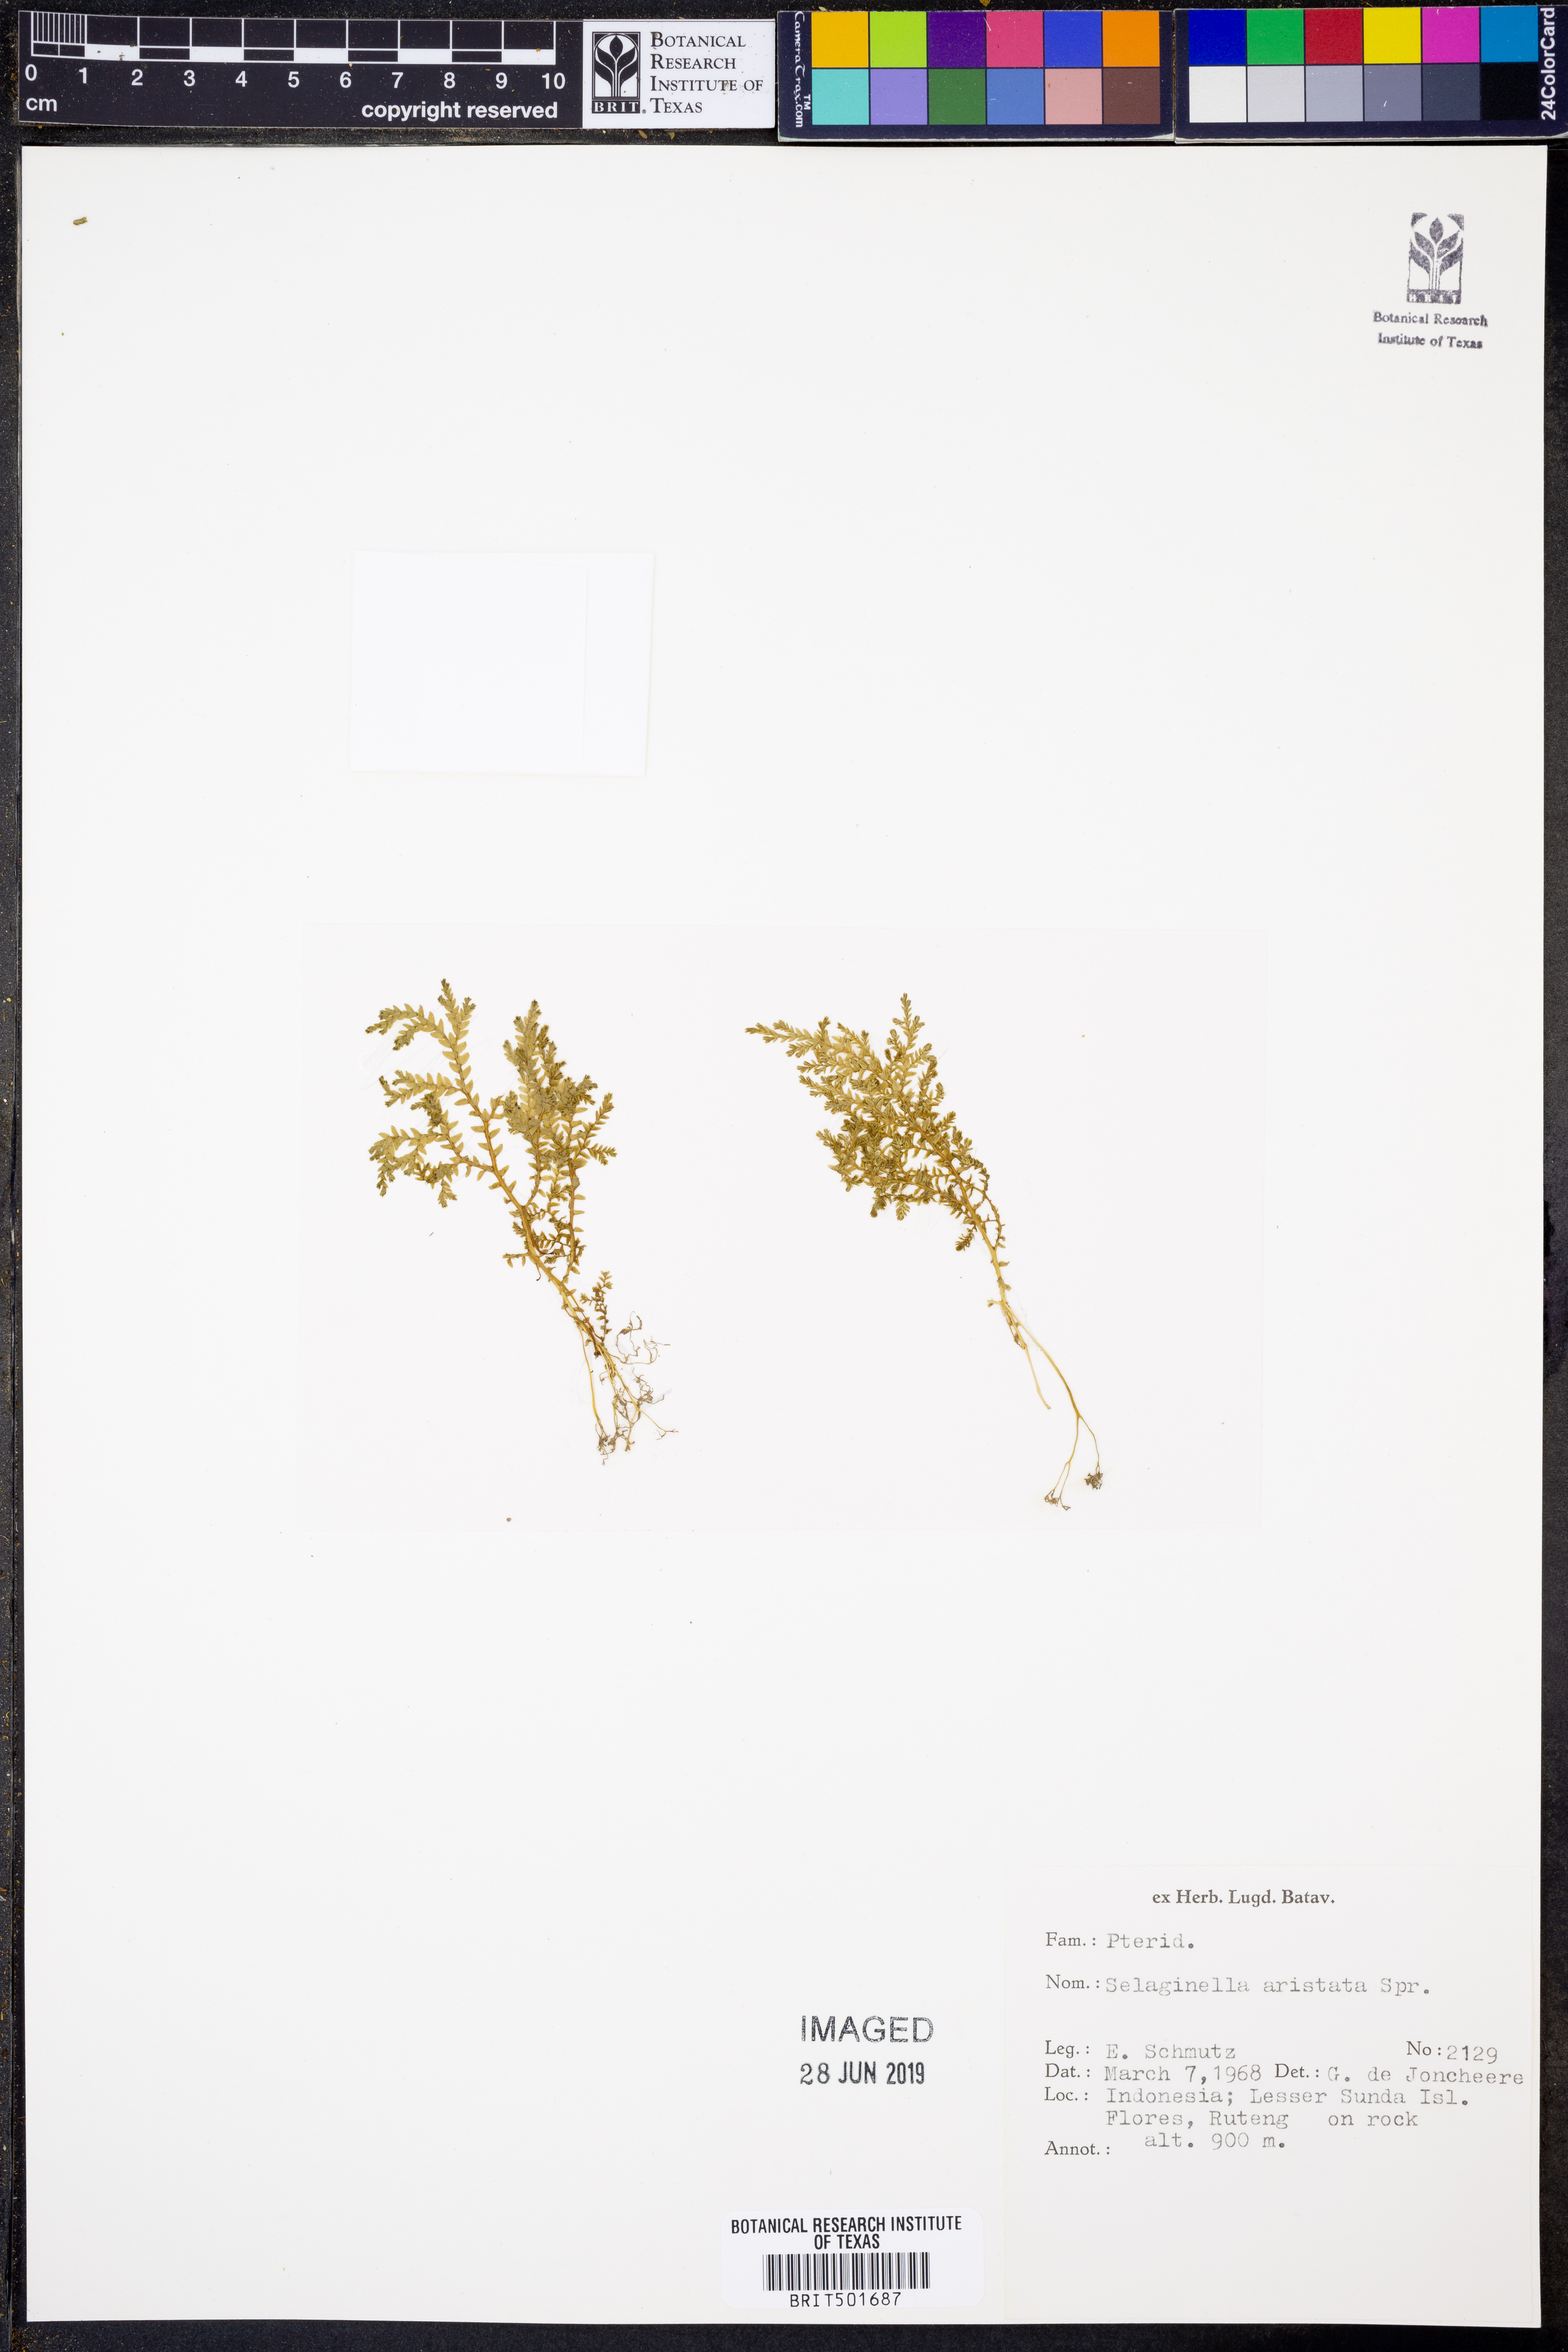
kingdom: Plantae
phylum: Tracheophyta
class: Lycopodiopsida
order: Selaginellales
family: Selaginellaceae
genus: Selaginella
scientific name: Selaginella aristata
